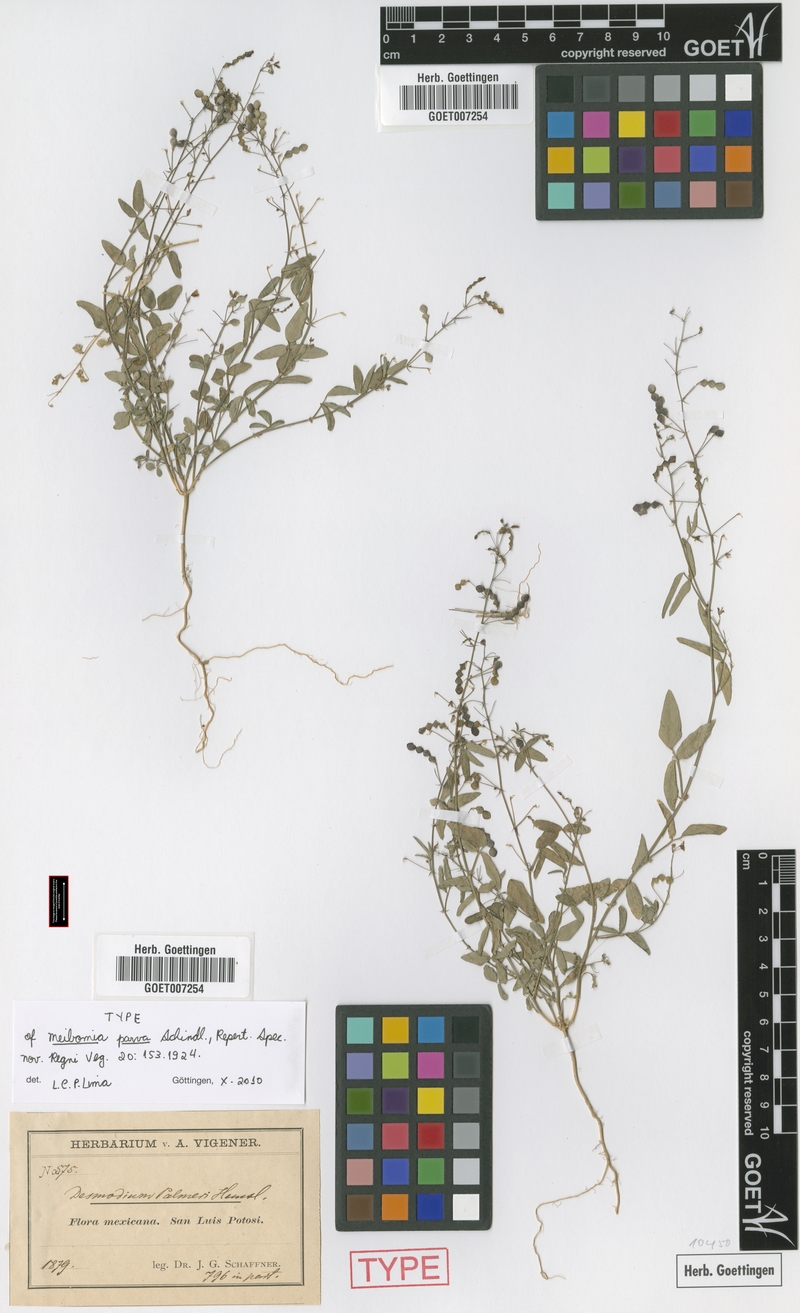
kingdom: Plantae
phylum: Tracheophyta
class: Magnoliopsida
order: Fabales
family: Fabaceae
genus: Desmodium
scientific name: Desmodium procumbens
